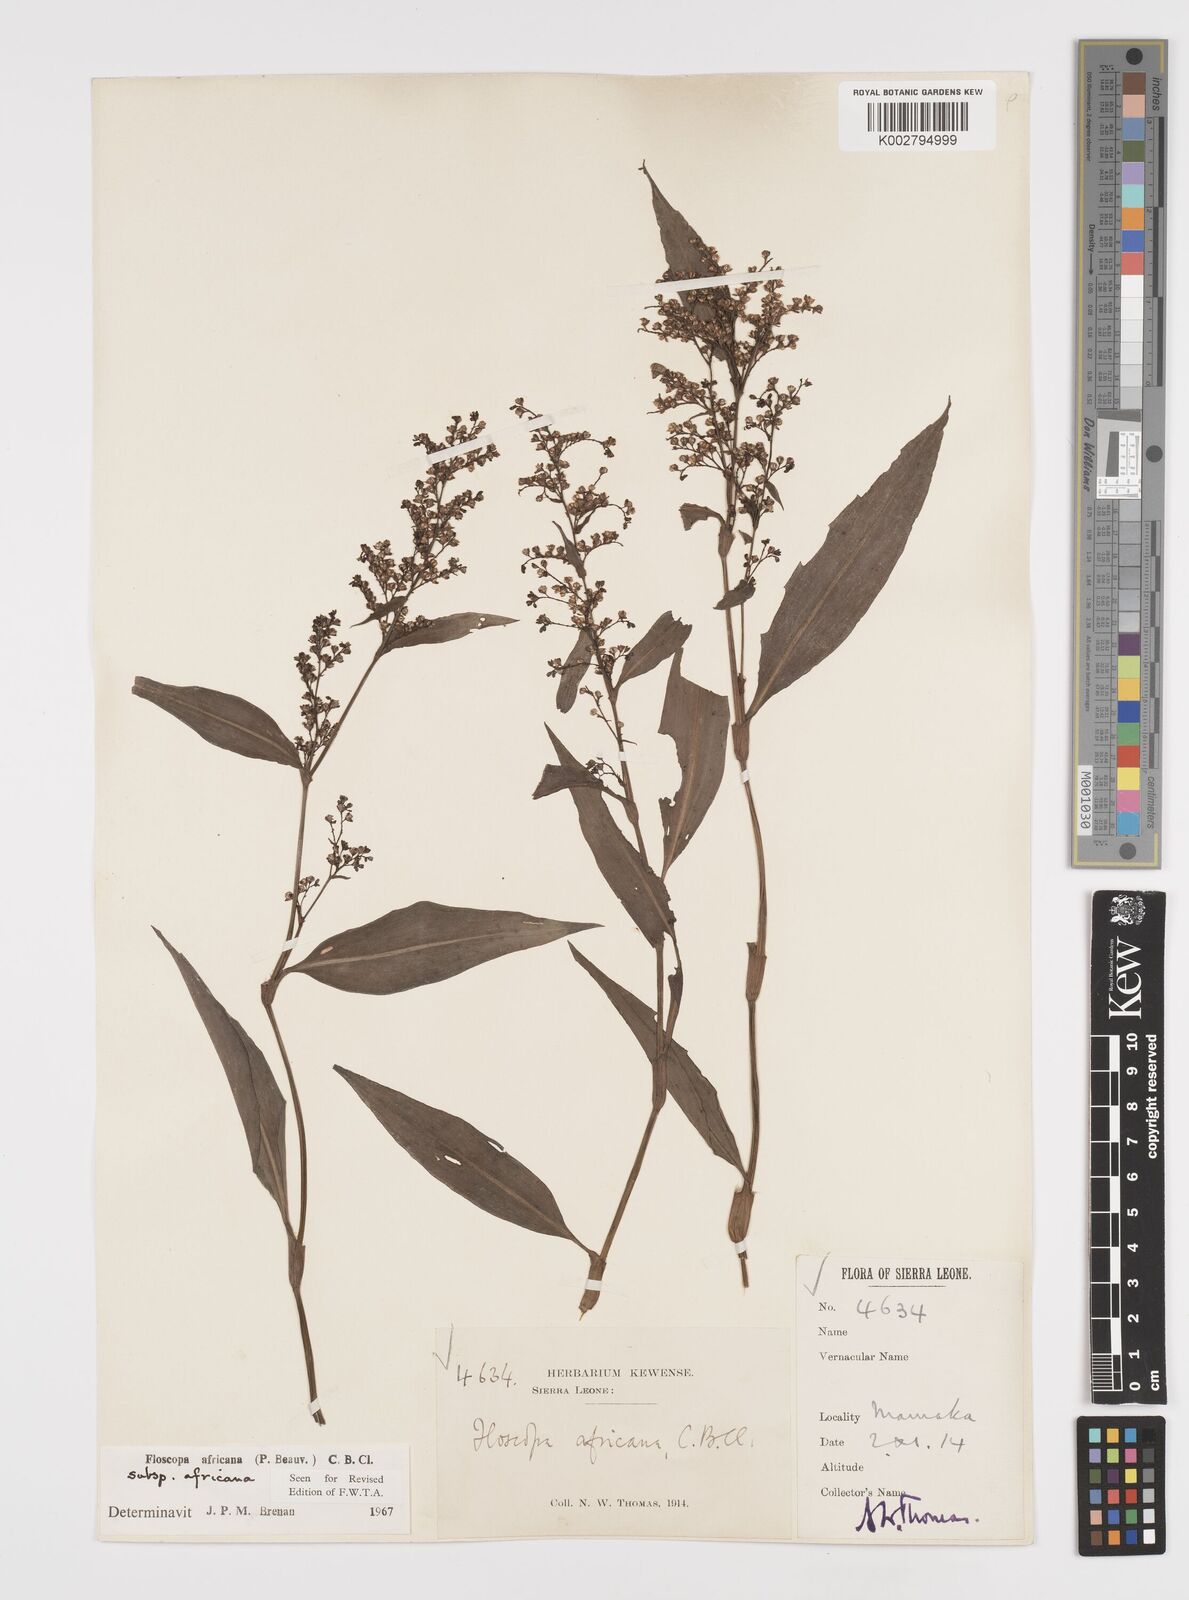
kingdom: Plantae
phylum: Tracheophyta
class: Liliopsida
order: Commelinales
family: Commelinaceae
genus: Floscopa
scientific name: Floscopa africana
